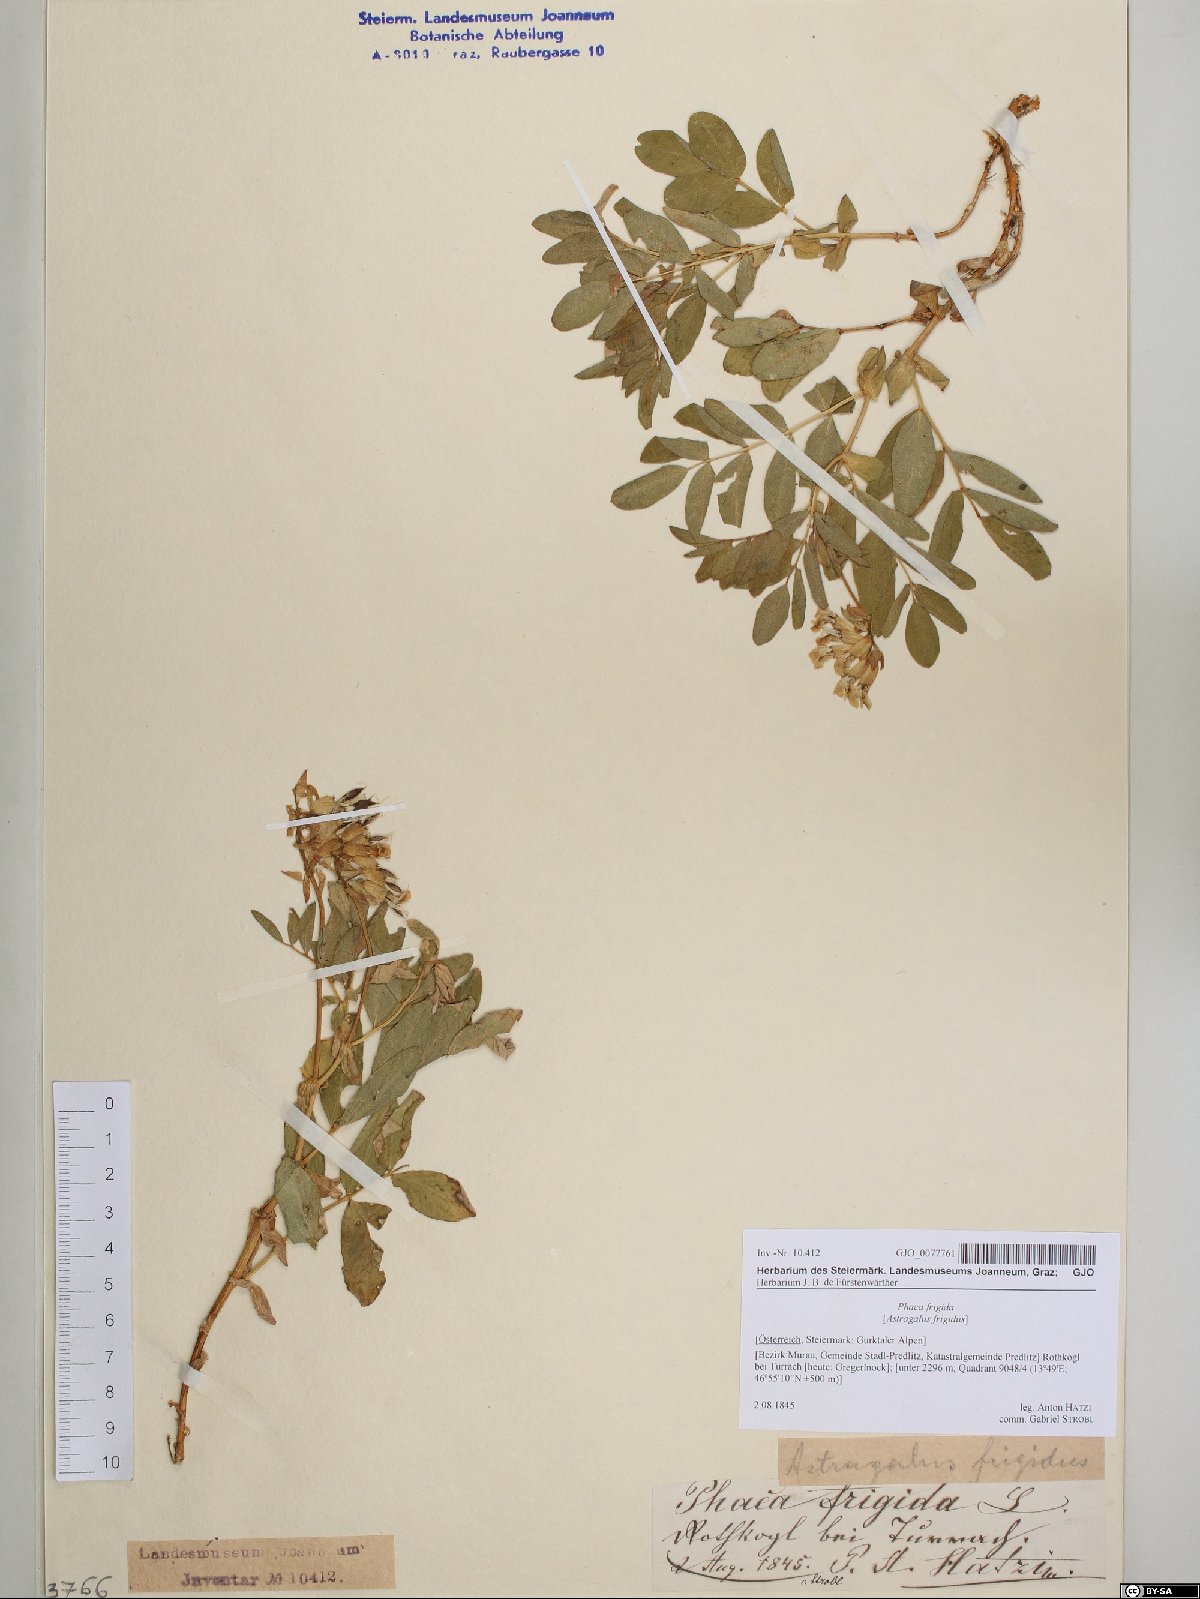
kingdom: Plantae
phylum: Tracheophyta
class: Magnoliopsida
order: Fabales
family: Fabaceae
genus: Astragalus
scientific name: Astragalus frigidus
